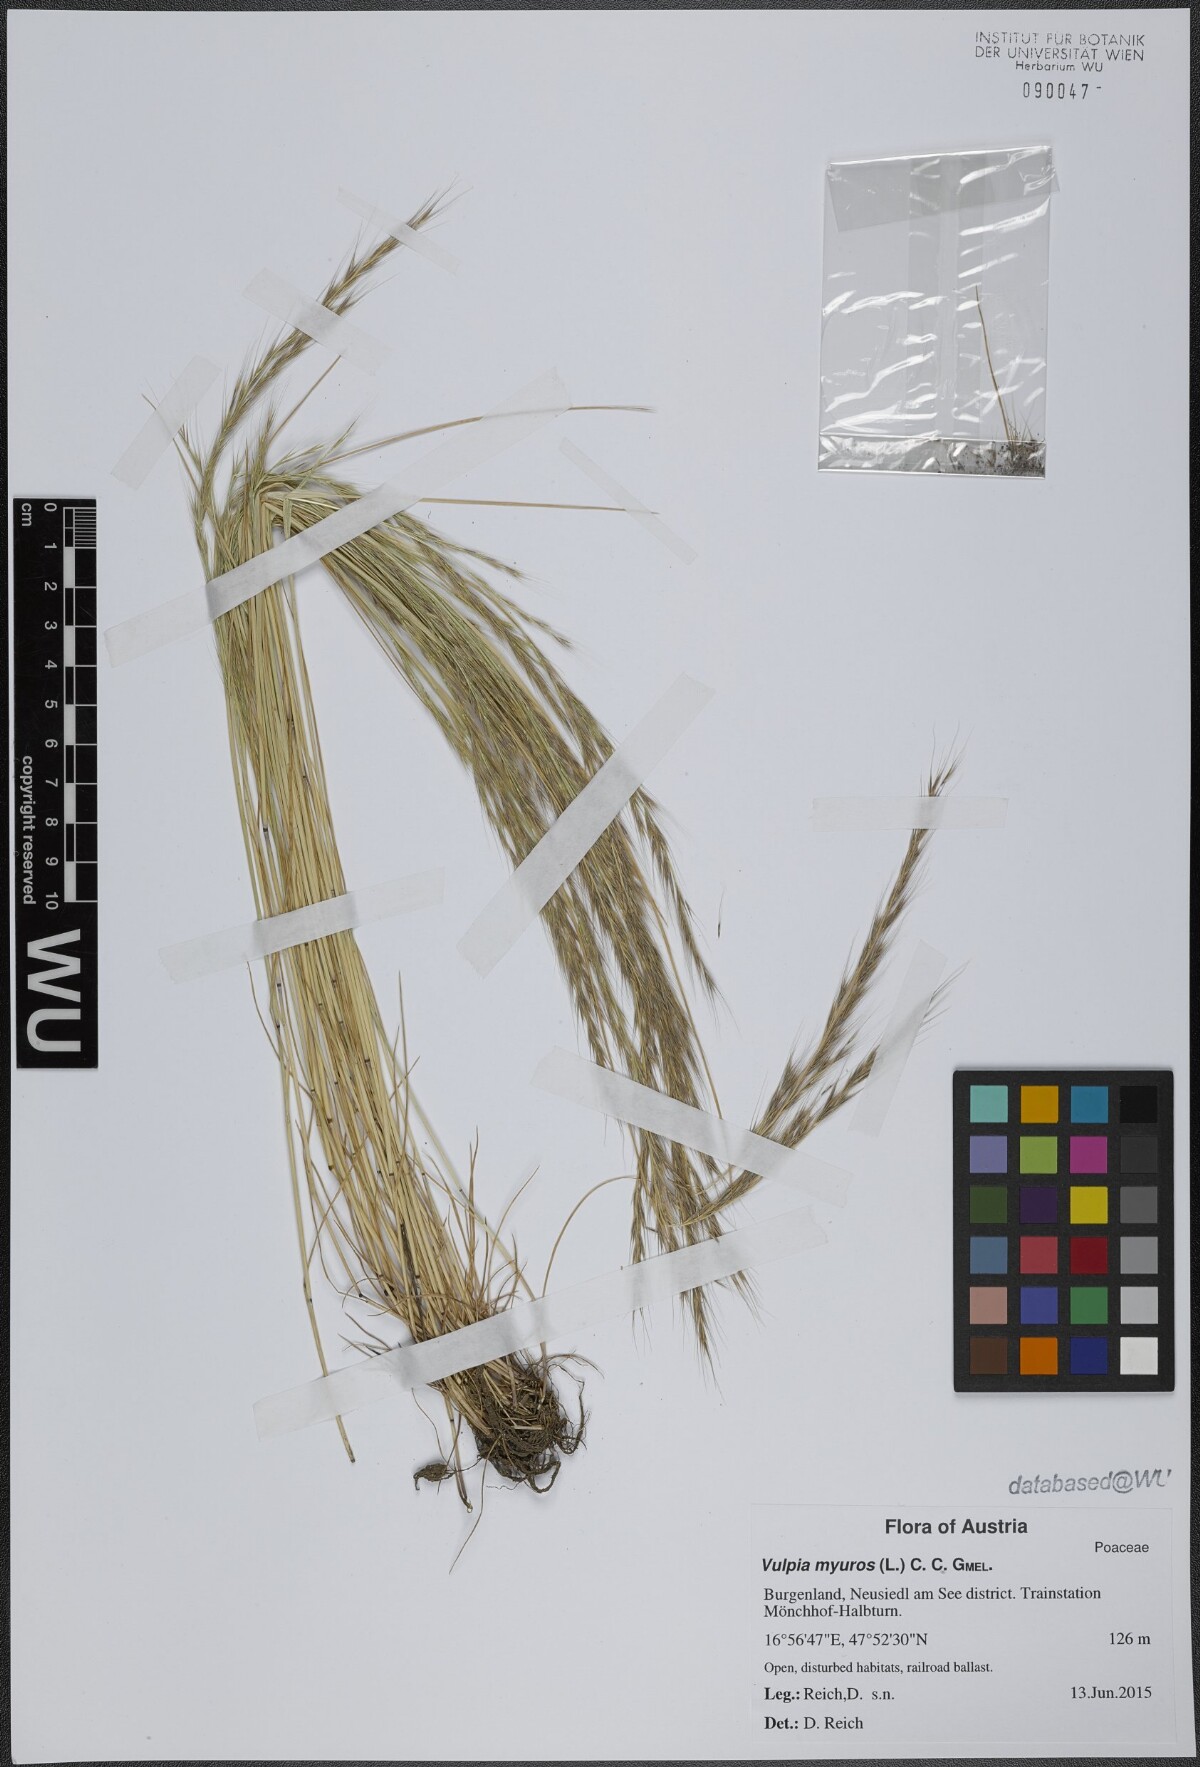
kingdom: Plantae
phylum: Tracheophyta
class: Liliopsida
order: Poales
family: Poaceae
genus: Festuca
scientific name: Festuca myuros
